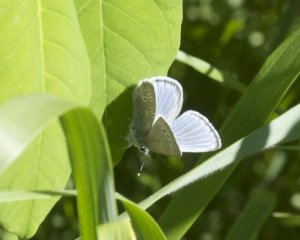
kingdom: Animalia
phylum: Arthropoda
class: Insecta
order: Lepidoptera
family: Lycaenidae
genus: Glaucopsyche
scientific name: Glaucopsyche lygdamus
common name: Silvery Blue
